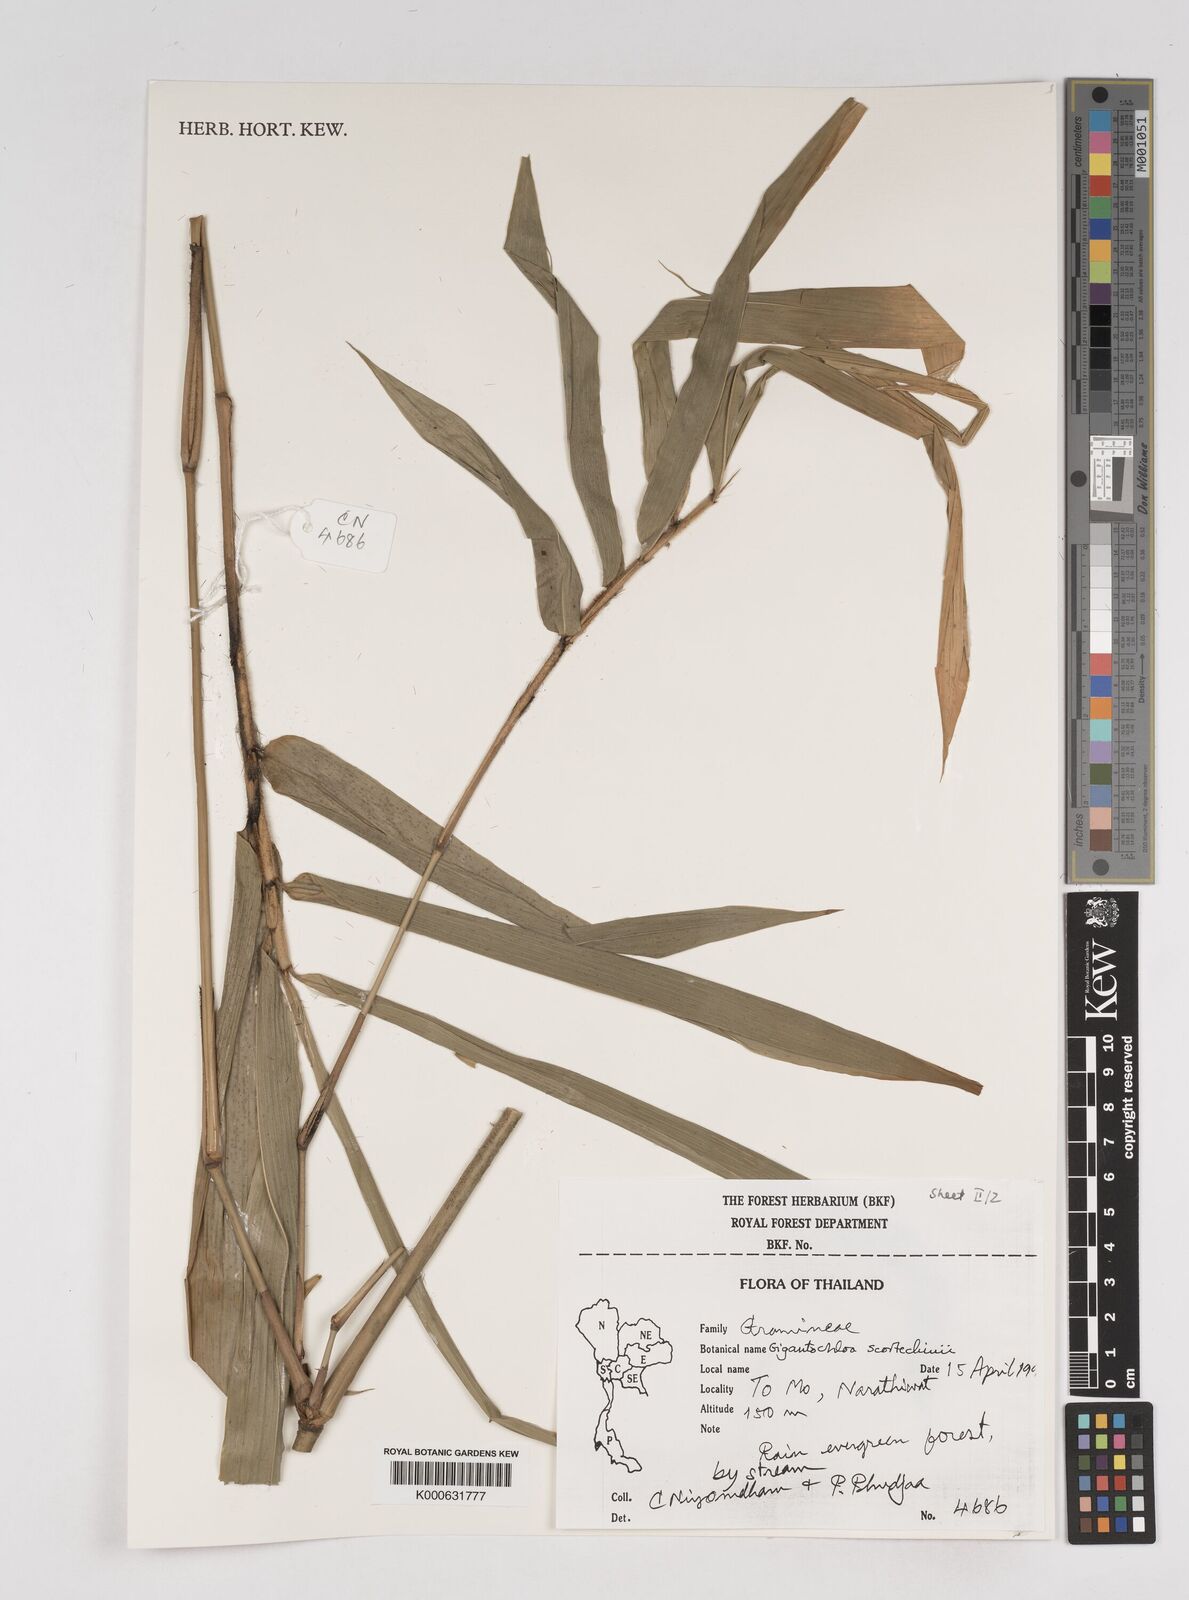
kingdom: Plantae
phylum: Tracheophyta
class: Liliopsida
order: Poales
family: Poaceae
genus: Gigantochloa
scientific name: Gigantochloa scortechinii
